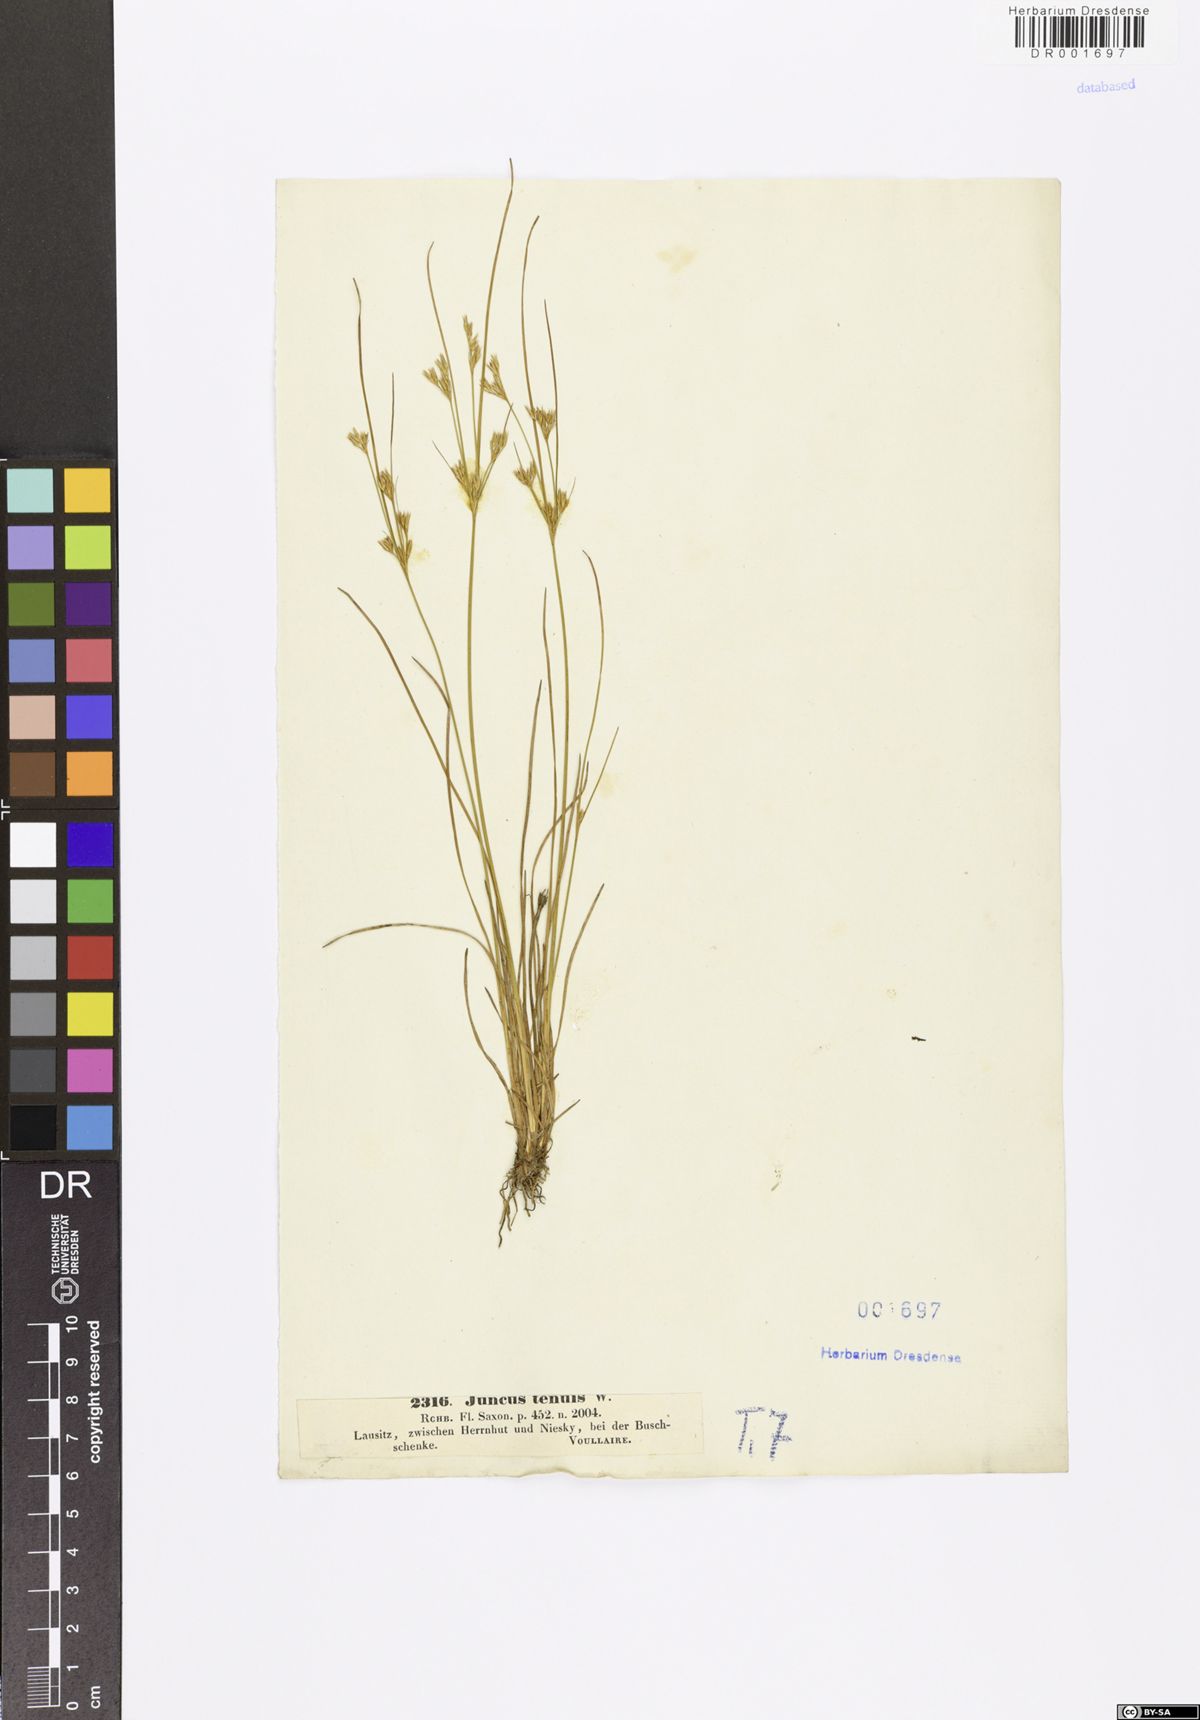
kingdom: Plantae
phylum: Tracheophyta
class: Liliopsida
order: Poales
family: Juncaceae
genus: Juncus
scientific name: Juncus tenuis
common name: Slender rush
